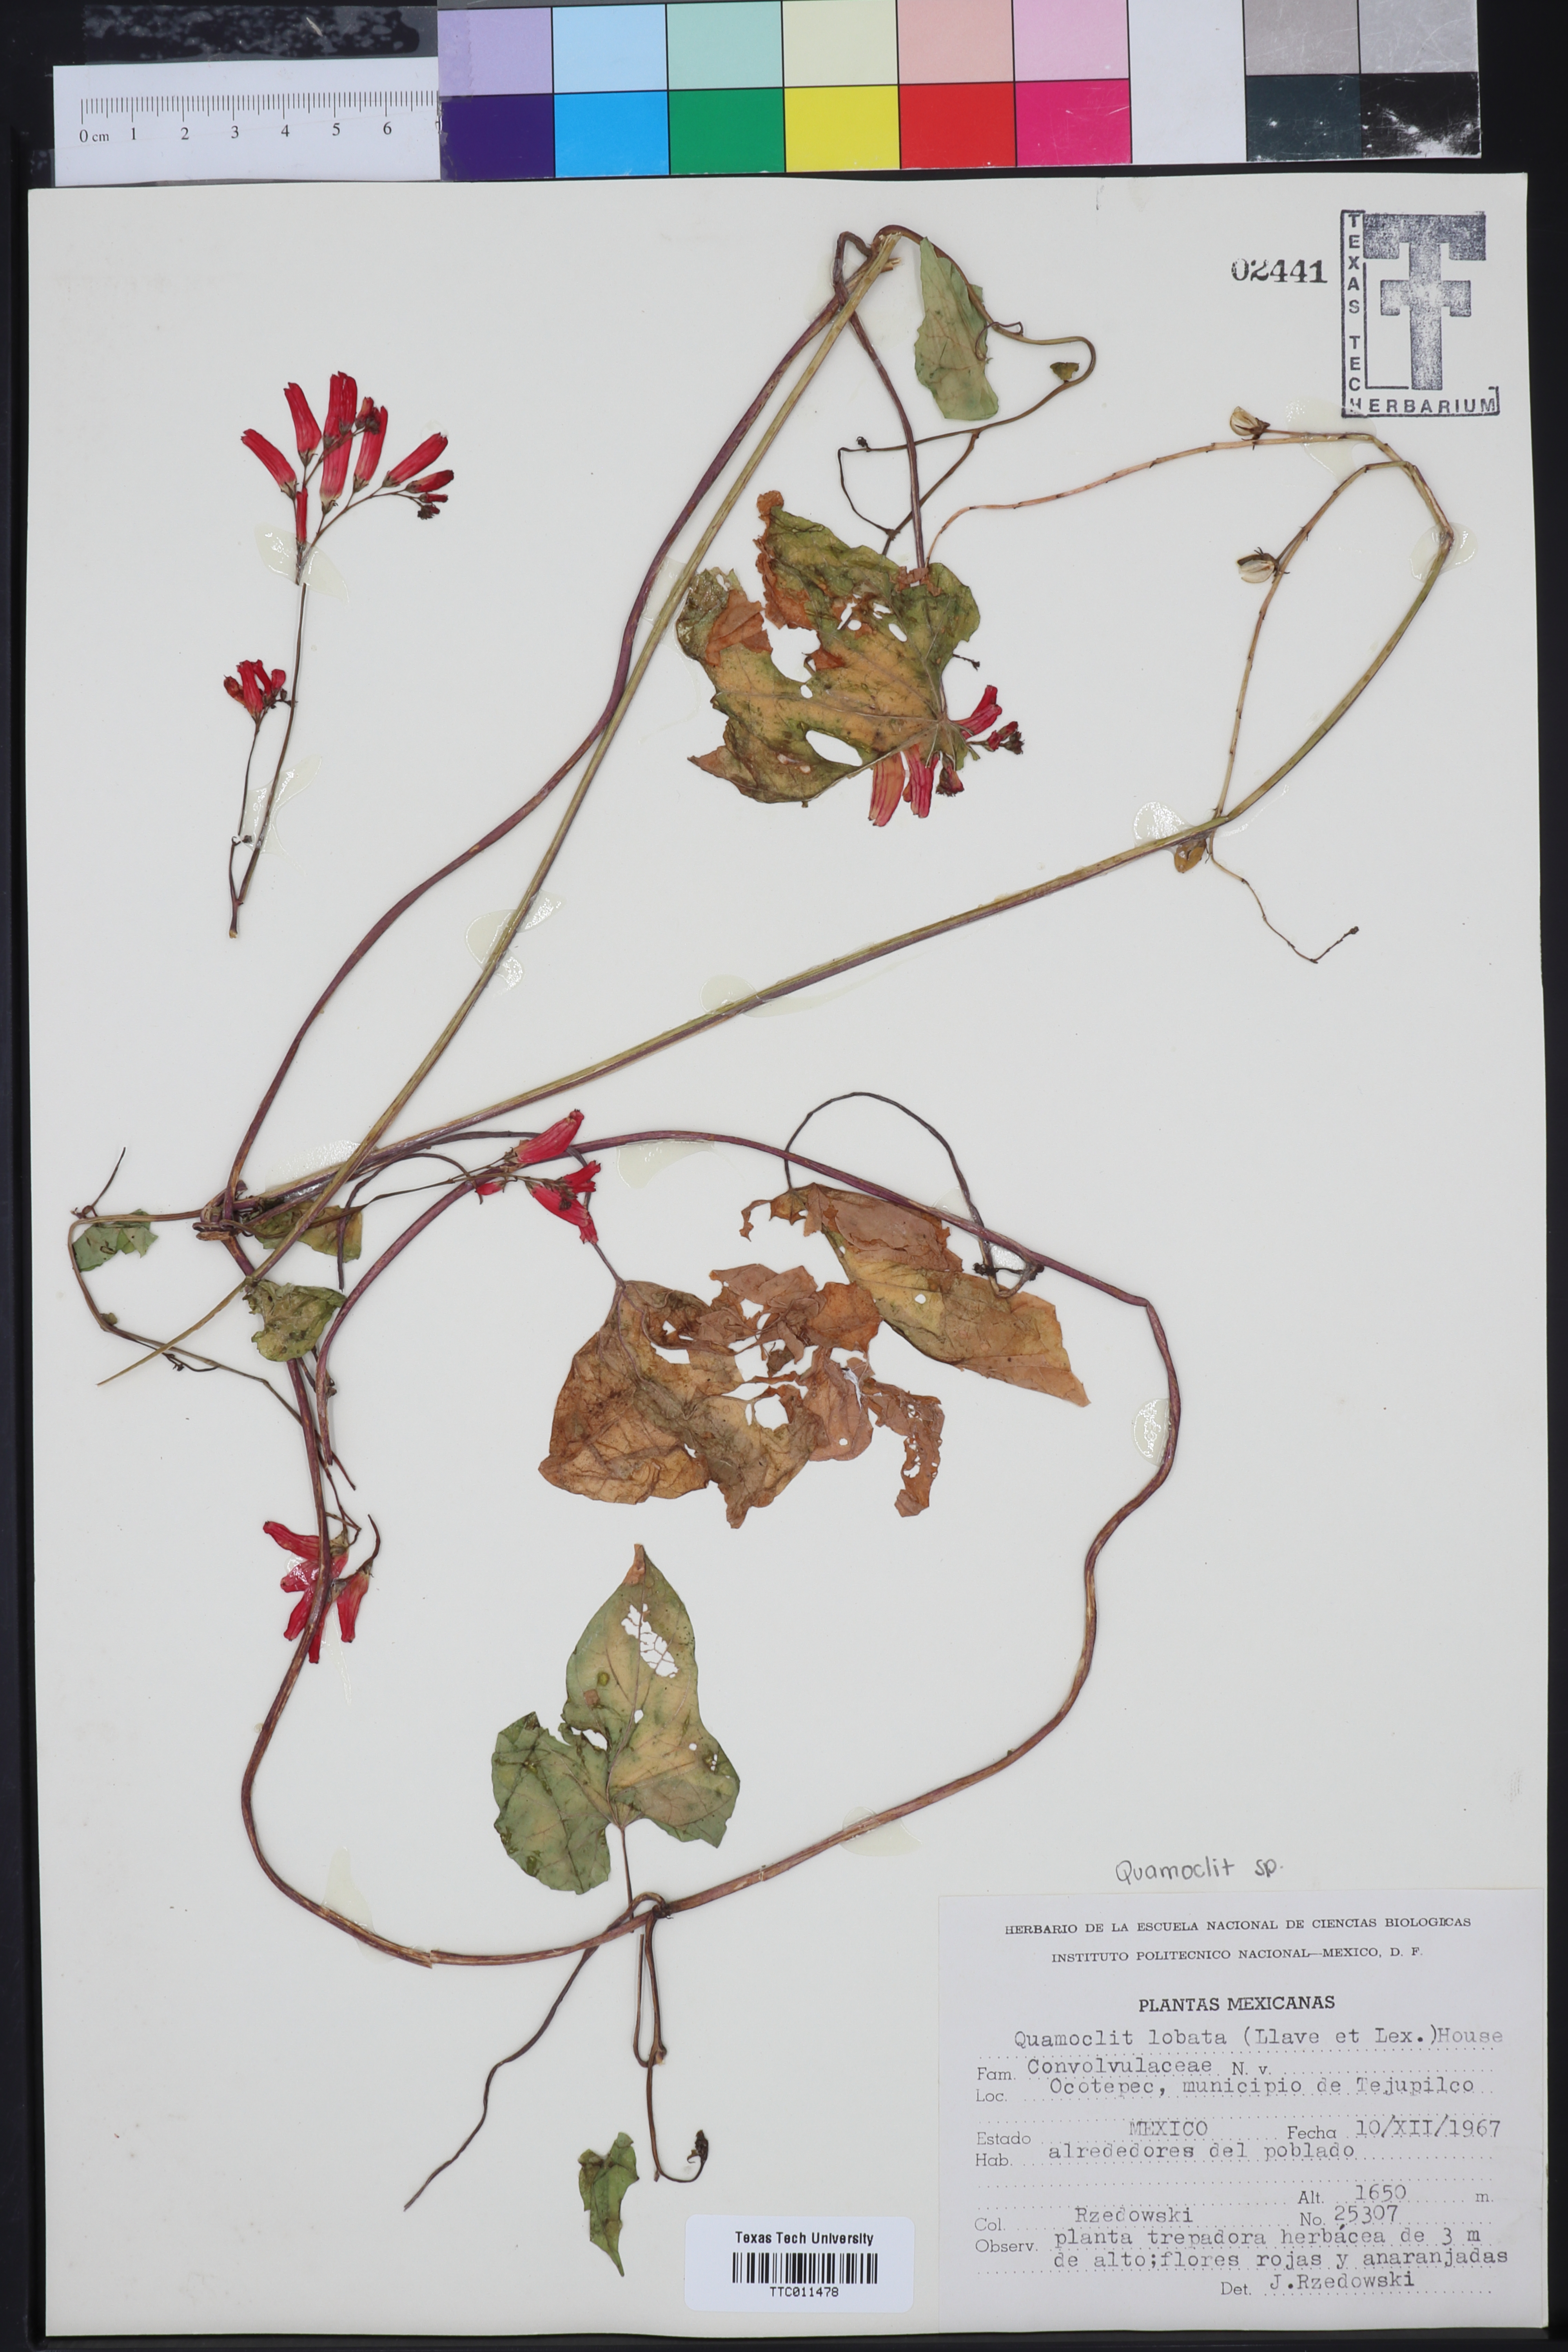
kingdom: Plantae
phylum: Tracheophyta
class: Magnoliopsida
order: Solanales
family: Convolvulaceae
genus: Ipomoea
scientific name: Ipomoea lobata
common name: Spanish-flag
